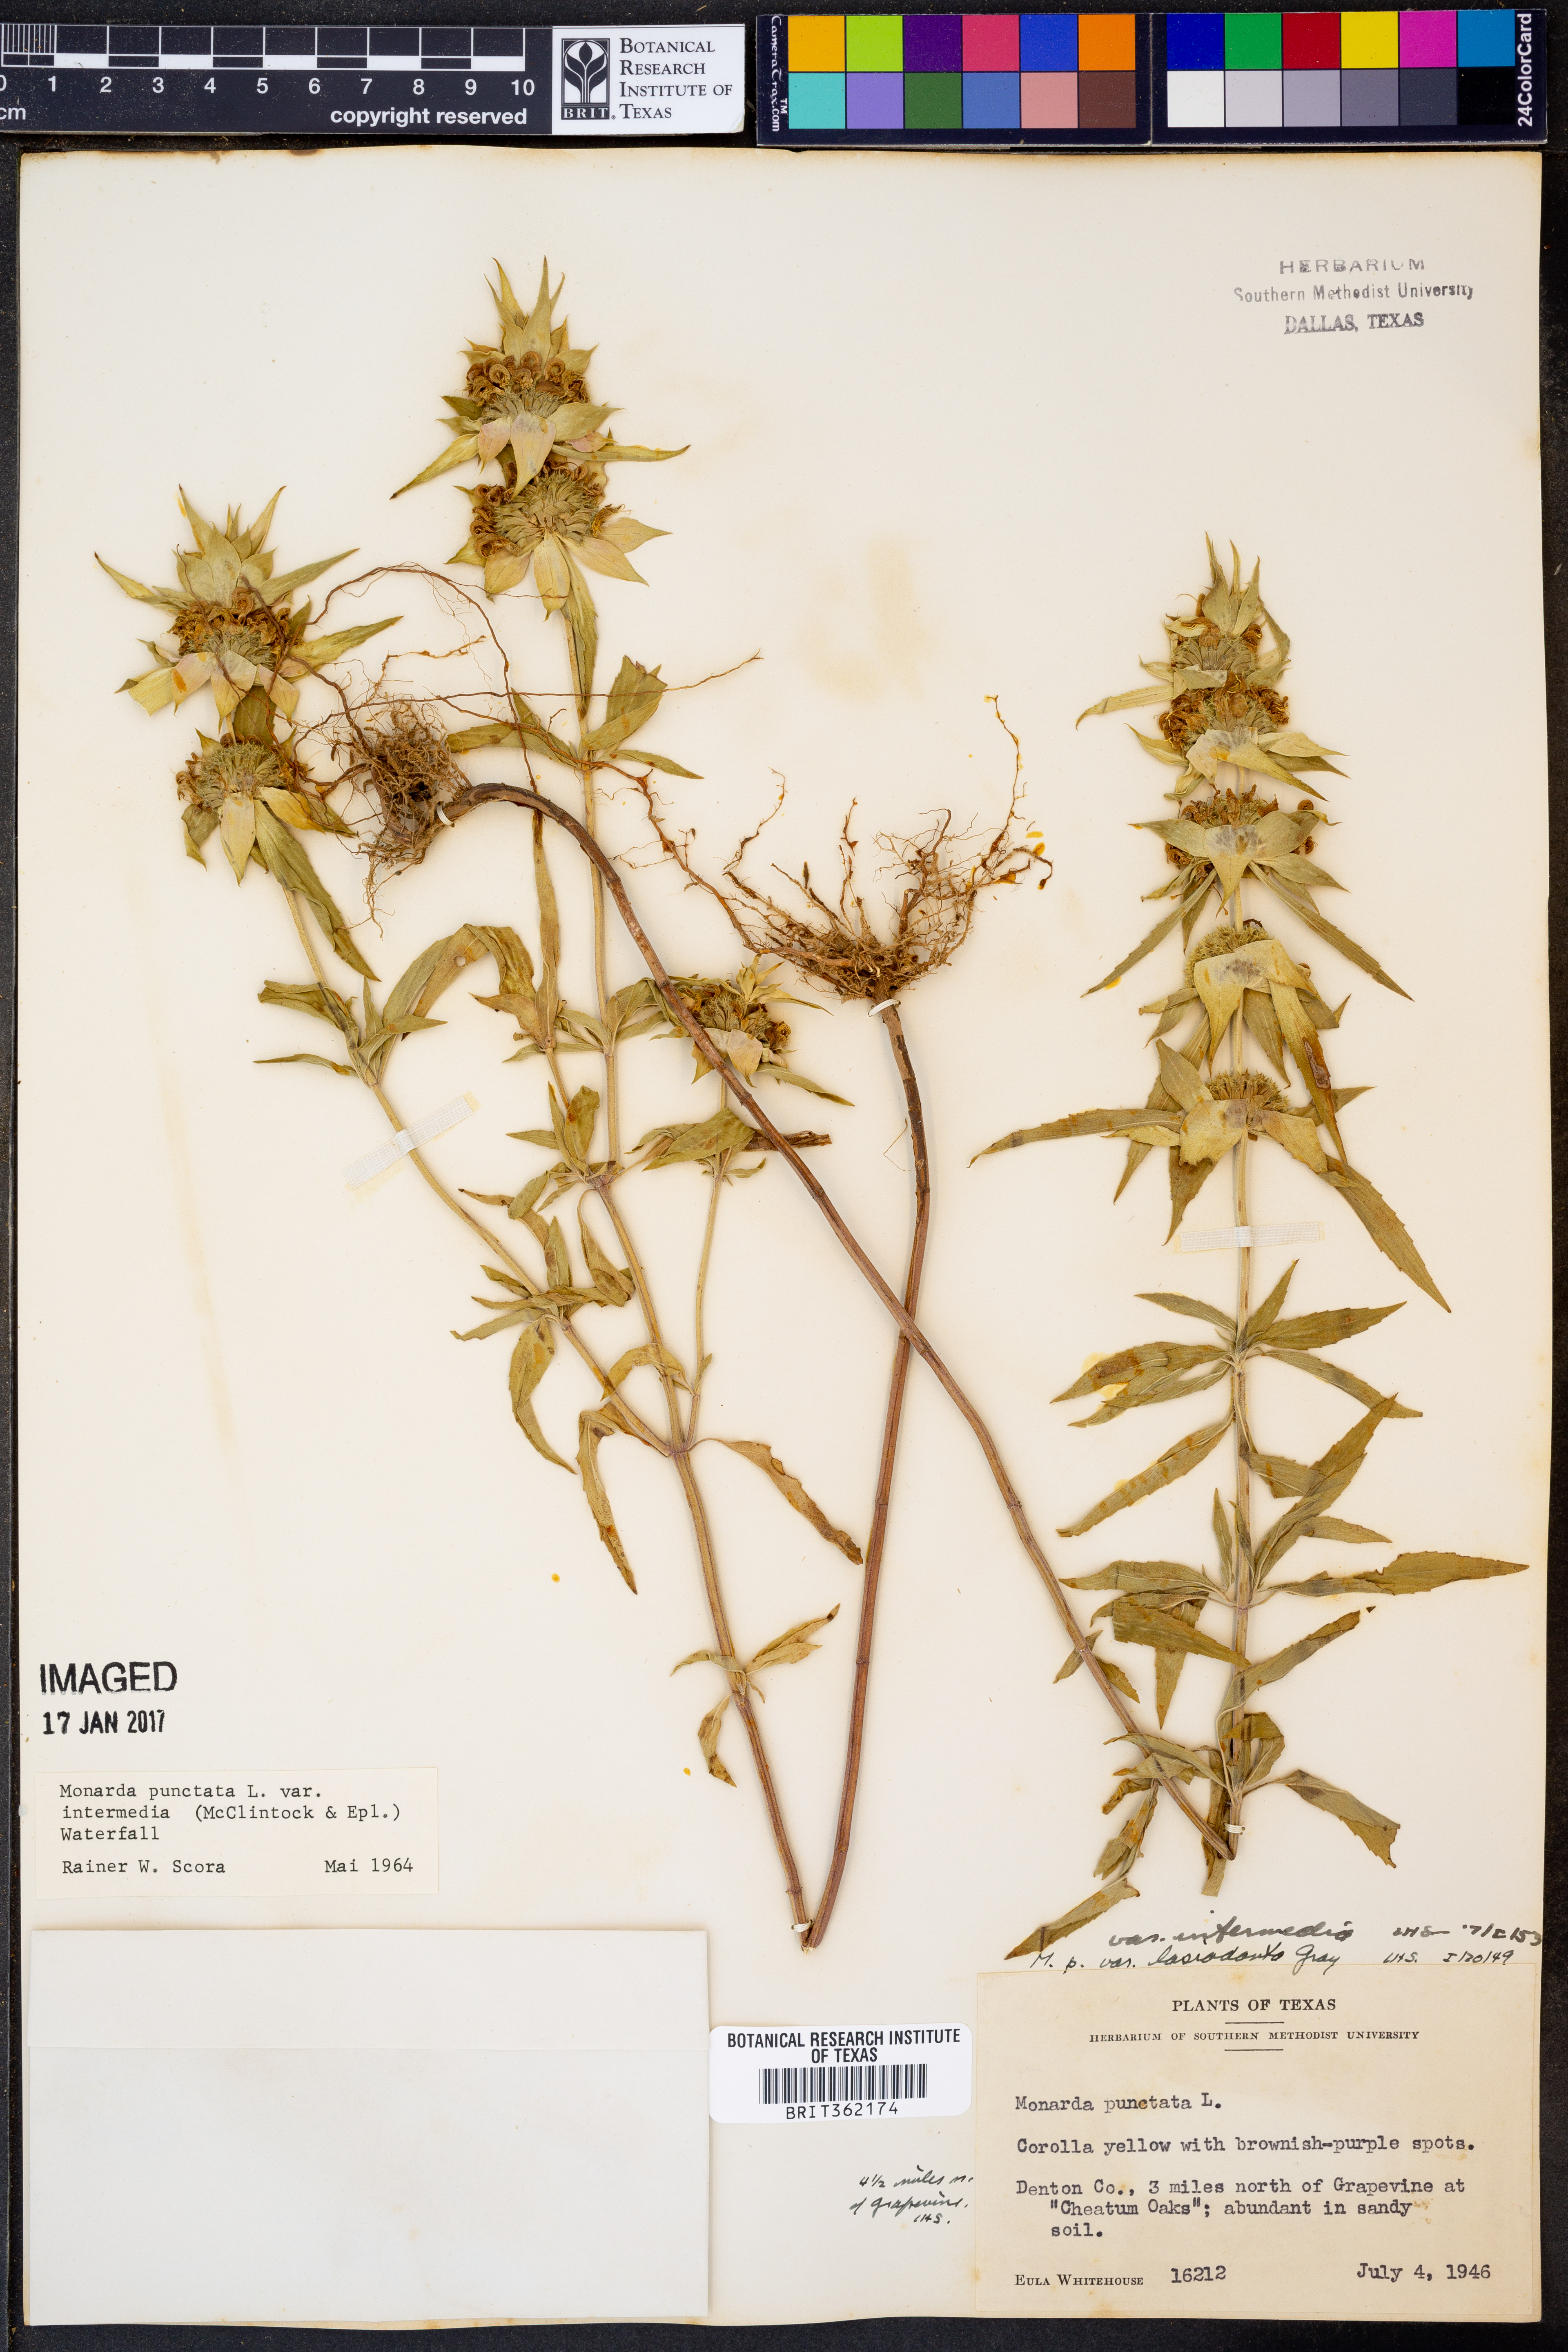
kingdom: Plantae
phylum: Tracheophyta
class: Magnoliopsida
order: Lamiales
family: Lamiaceae
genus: Monarda
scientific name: Monarda punctata
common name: Dotted monarda
